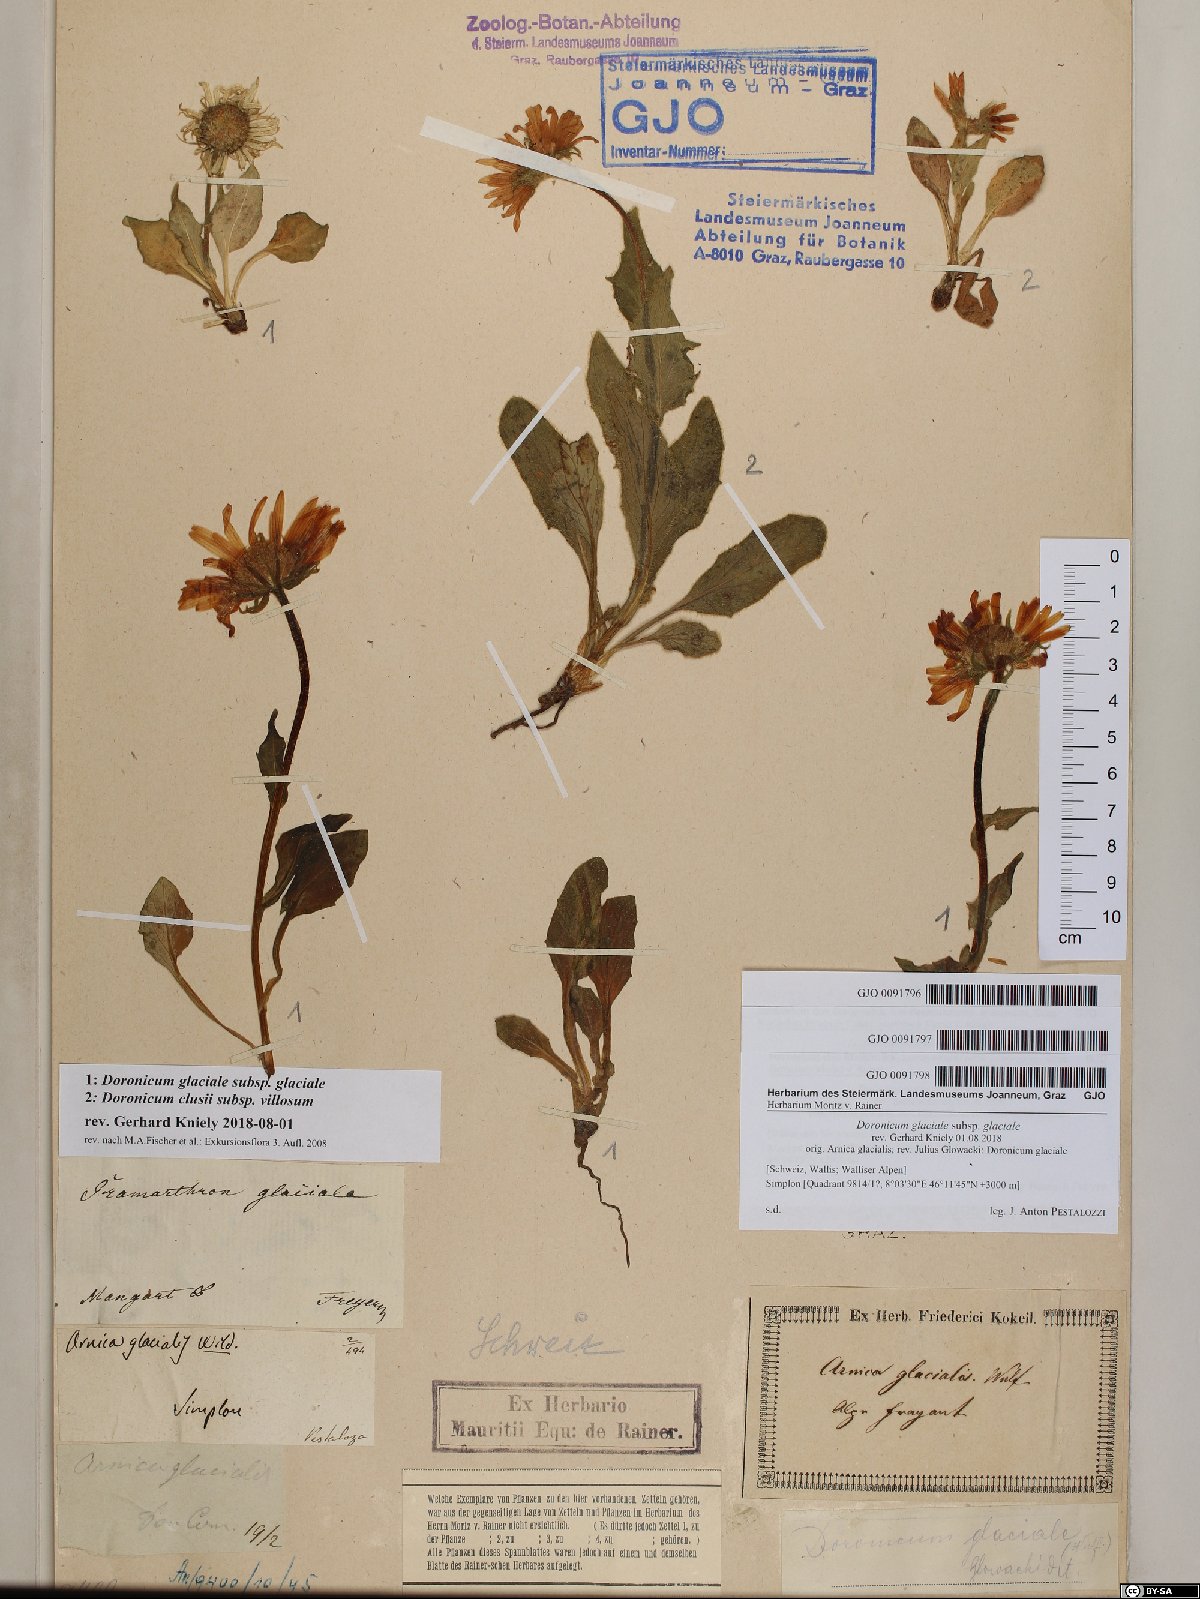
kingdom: Plantae
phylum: Tracheophyta
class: Magnoliopsida
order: Asterales
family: Asteraceae
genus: Doronicum
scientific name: Doronicum glaciale
